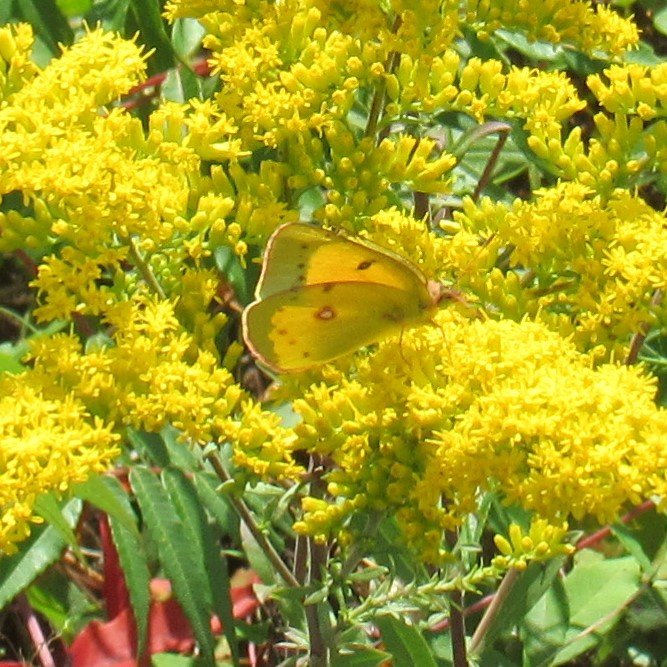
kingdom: Animalia
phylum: Arthropoda
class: Insecta
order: Lepidoptera
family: Pieridae
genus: Colias
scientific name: Colias eurytheme
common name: Orange Sulphur
